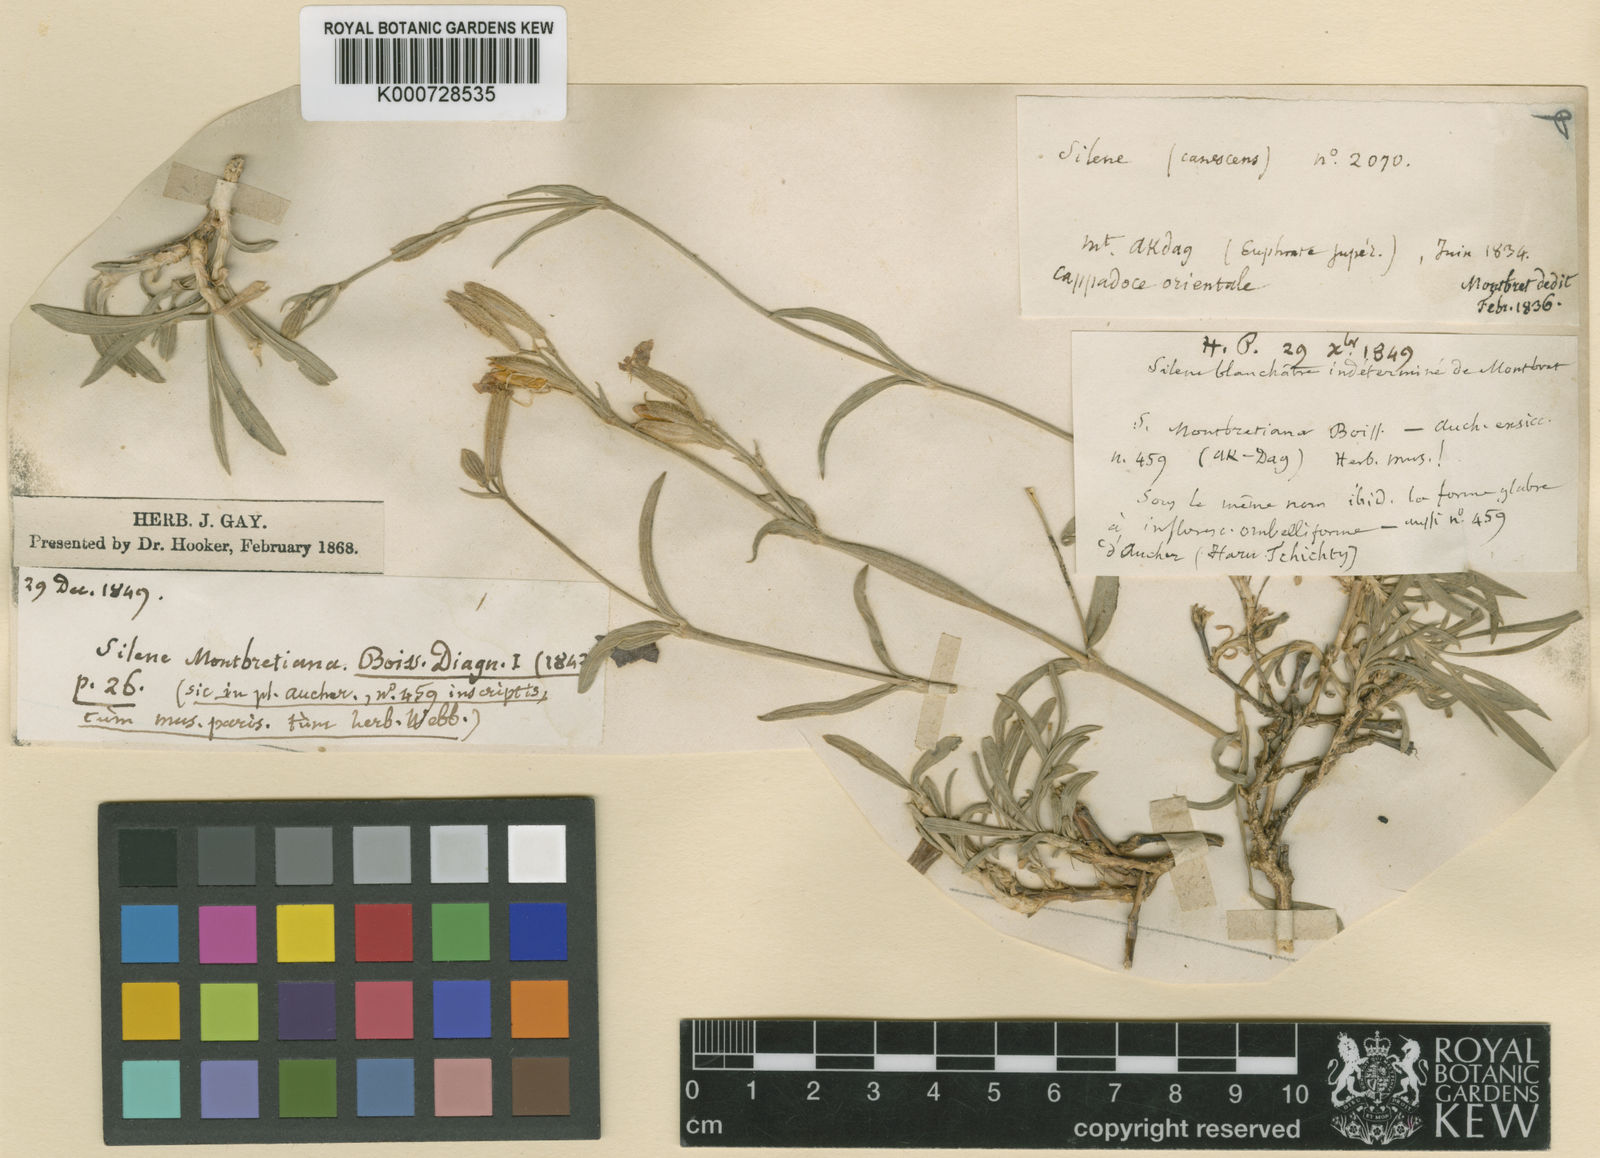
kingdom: Plantae
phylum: Tracheophyta
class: Magnoliopsida
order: Caryophyllales
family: Caryophyllaceae
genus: Silene
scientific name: Silene arguta
